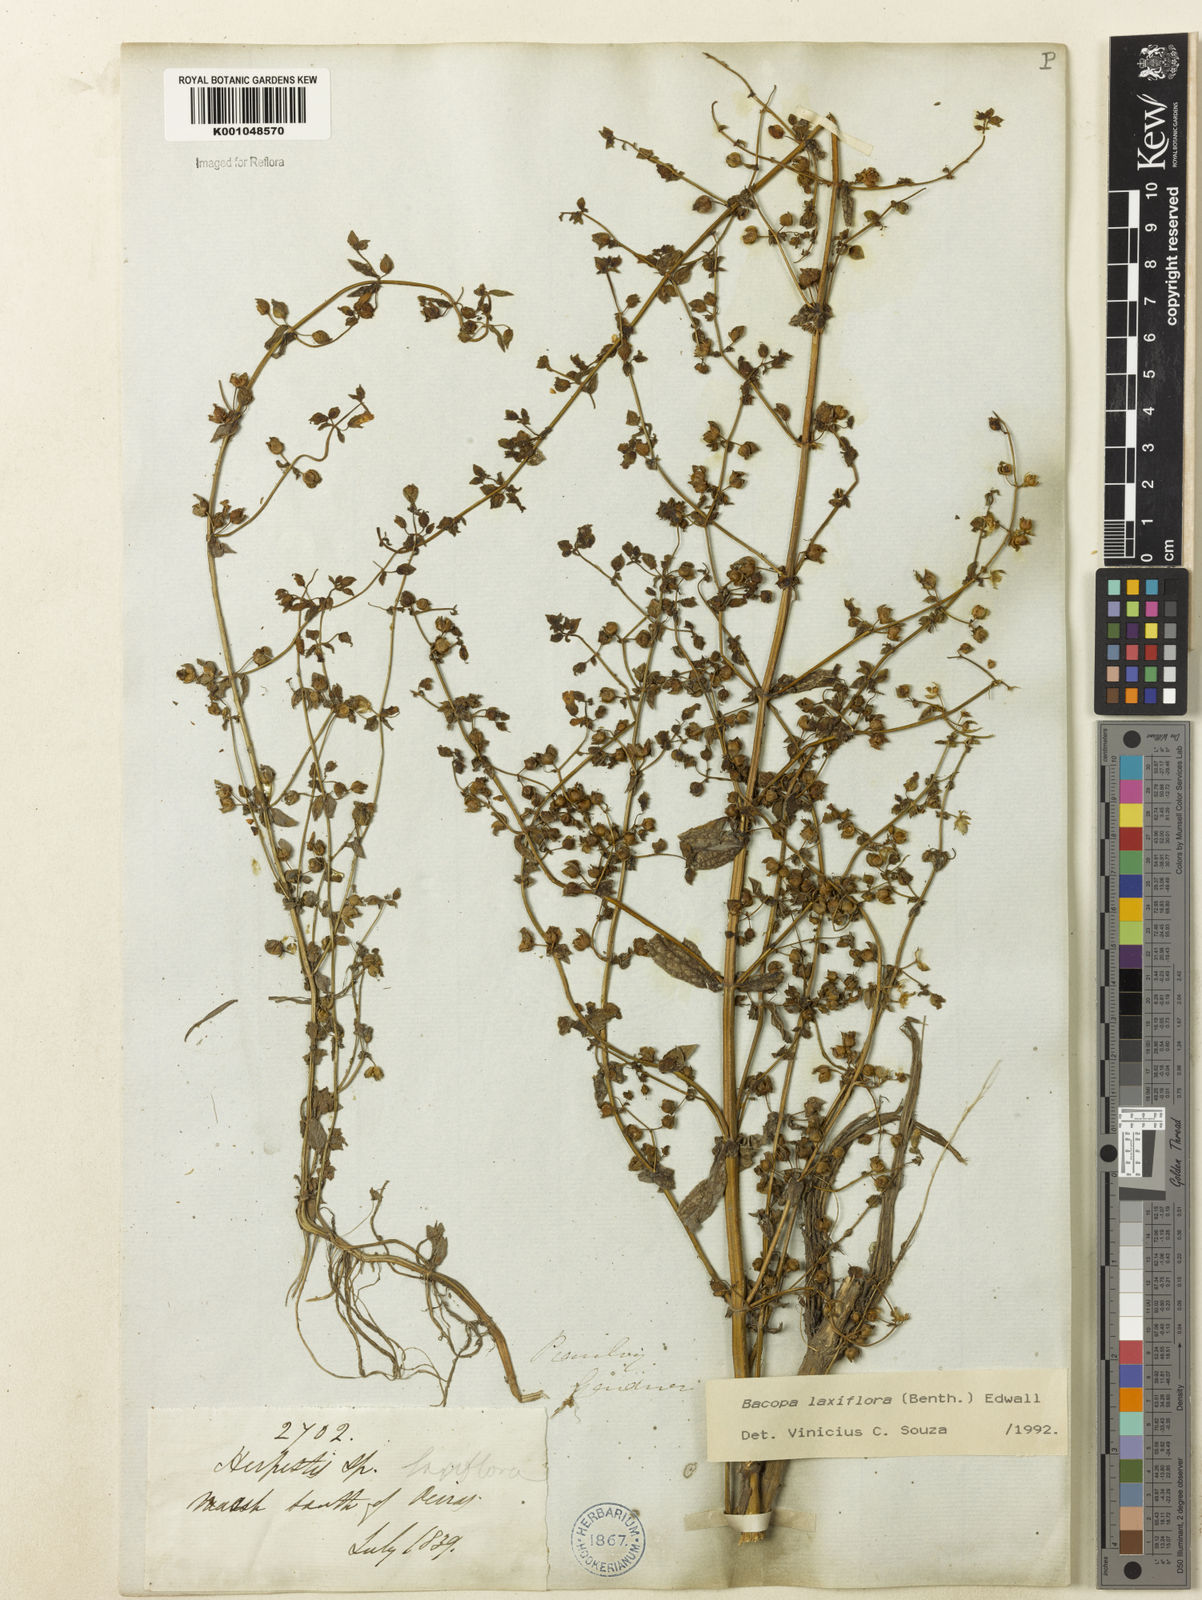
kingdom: Plantae
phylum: Tracheophyta
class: Magnoliopsida
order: Lamiales
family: Plantaginaceae
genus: Bacopa
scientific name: Bacopa laxiflora
